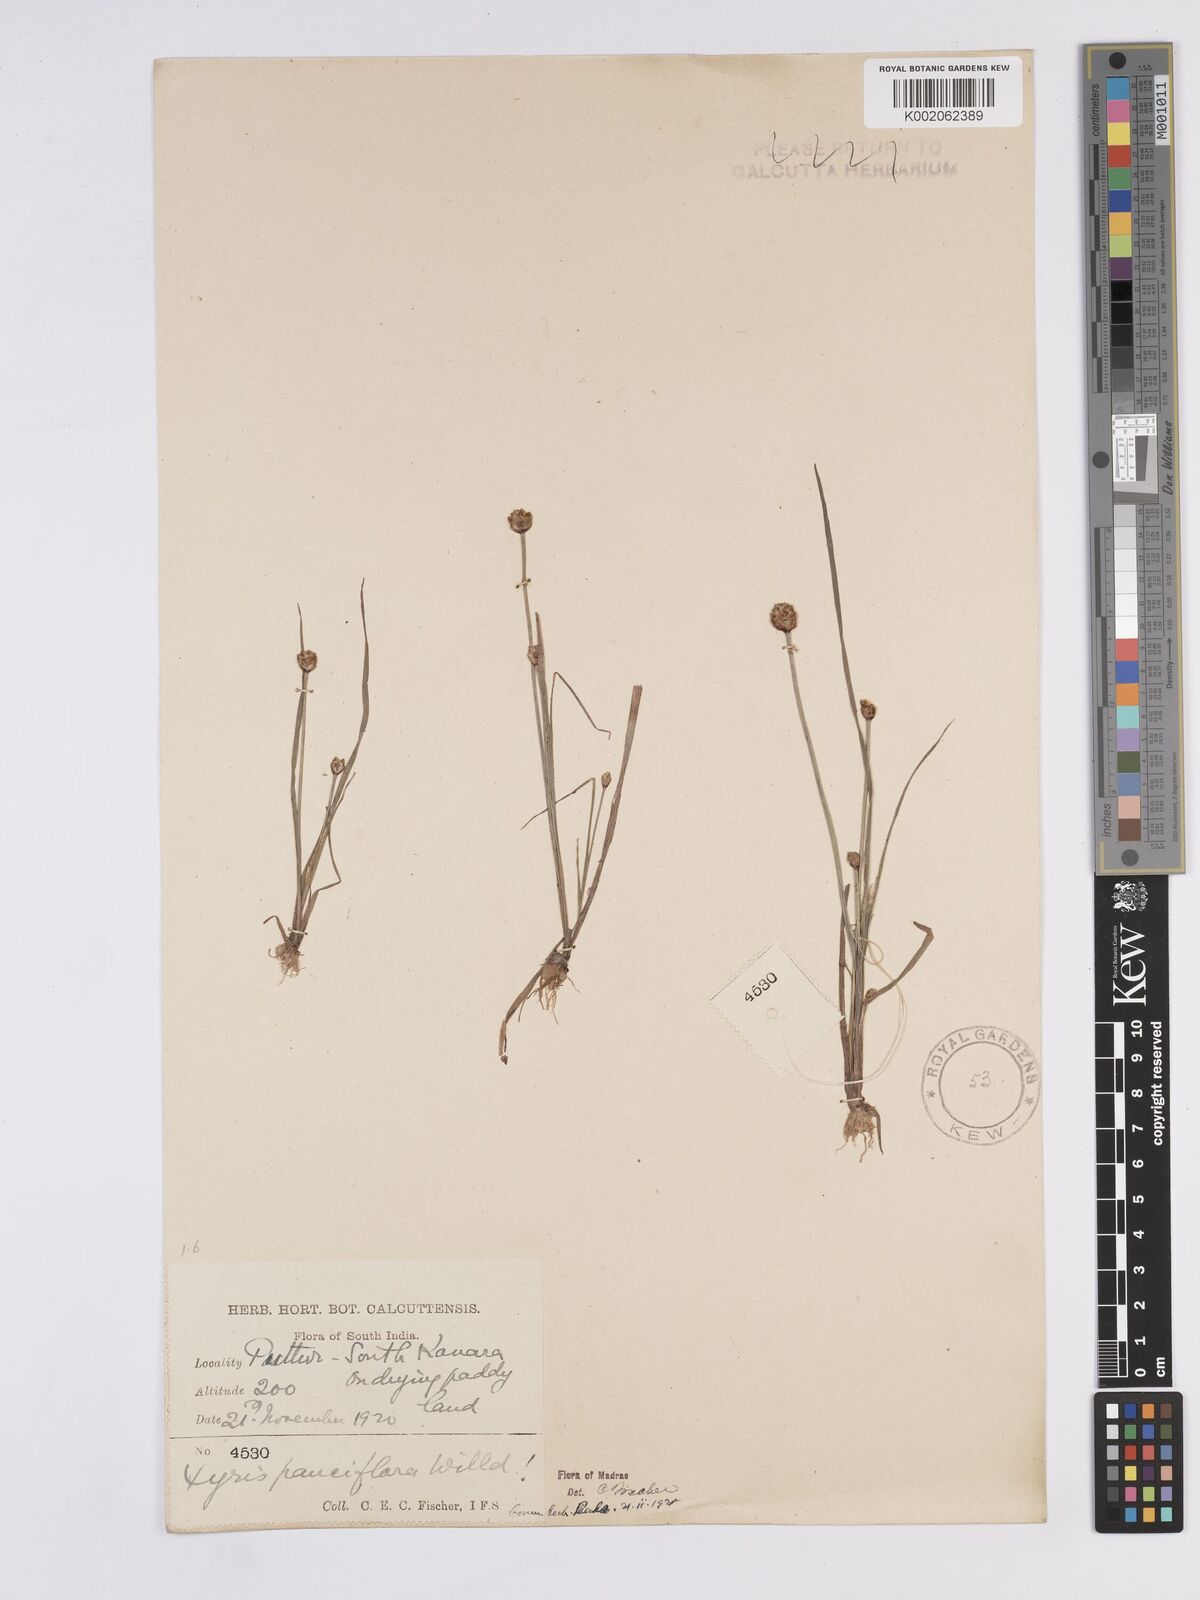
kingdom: Plantae
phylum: Tracheophyta
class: Liliopsida
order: Poales
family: Xyridaceae
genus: Xyris
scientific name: Xyris pauciflora
